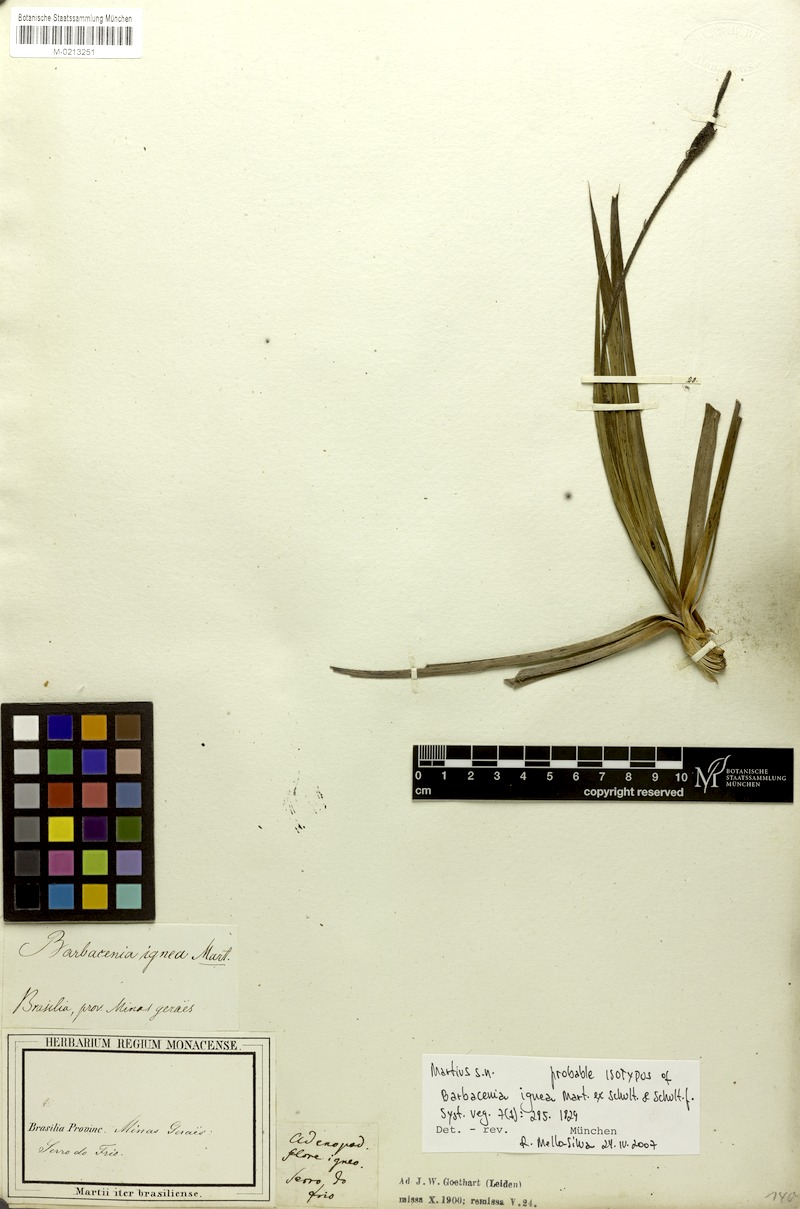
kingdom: Plantae
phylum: Tracheophyta
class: Liliopsida
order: Pandanales
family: Velloziaceae
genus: Barbacenia
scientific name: Barbacenia ignea
